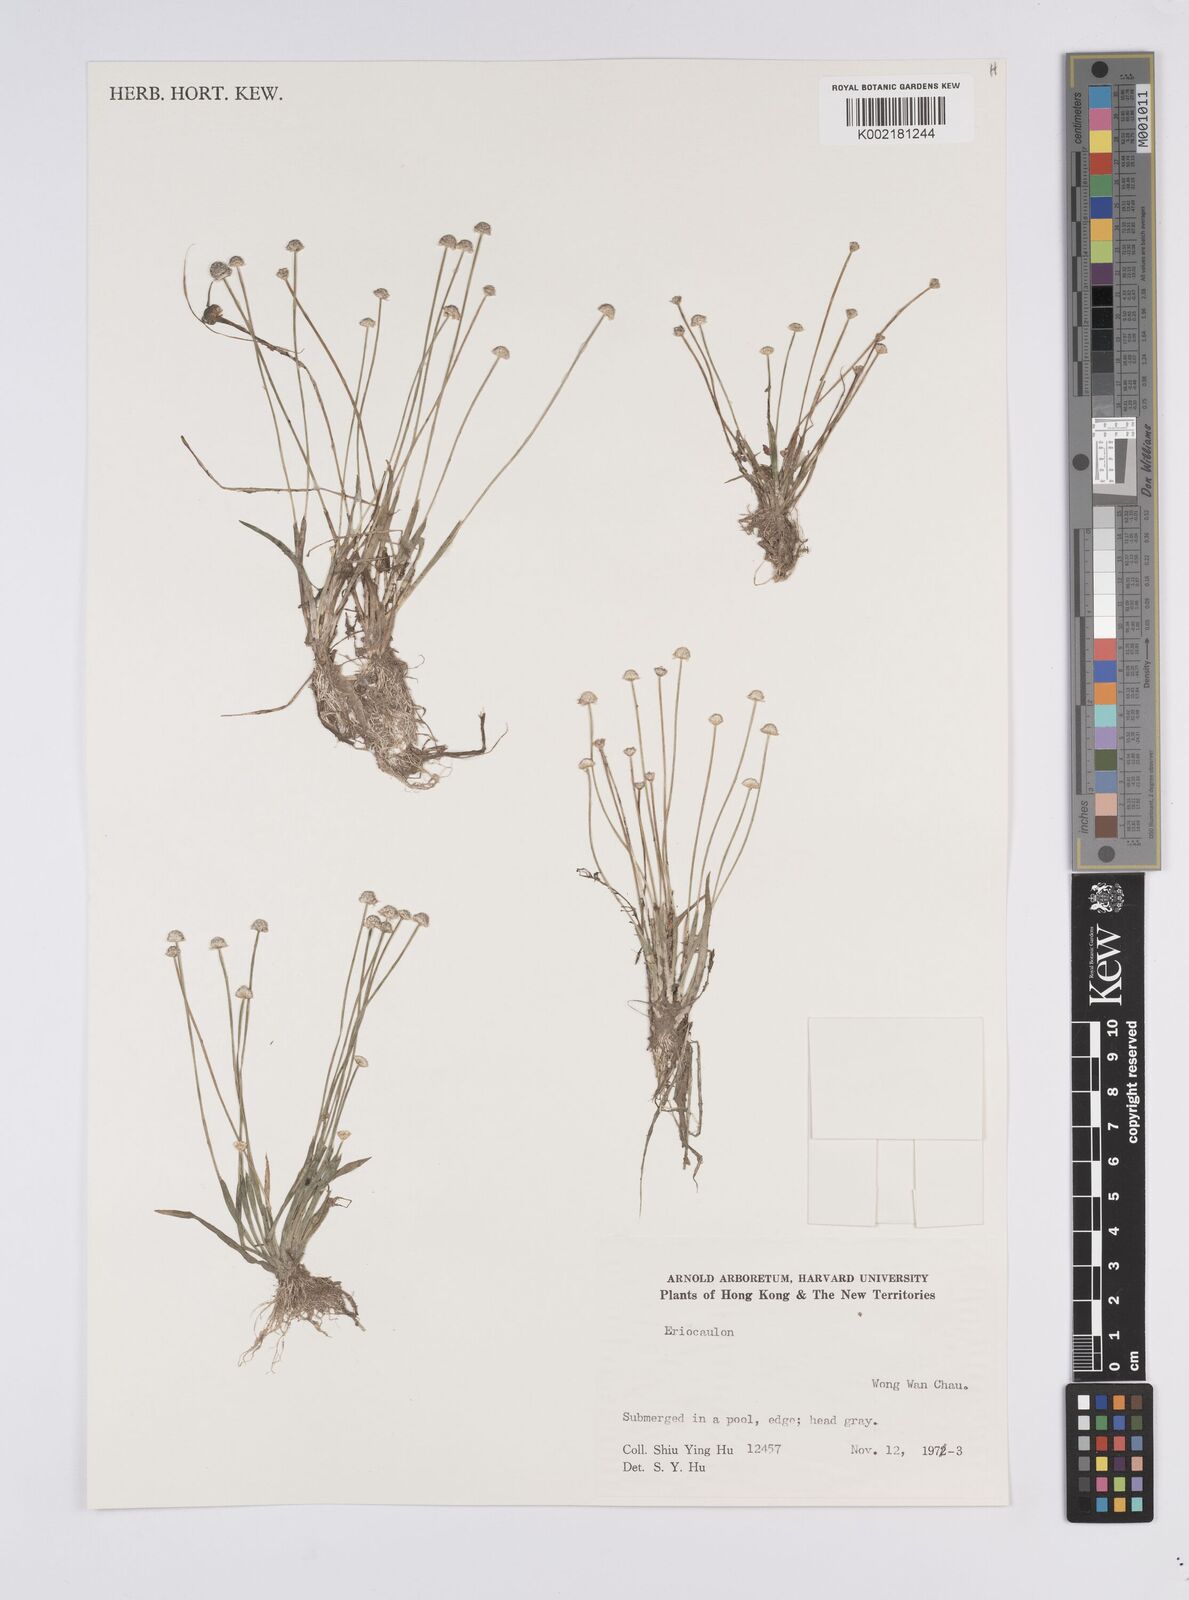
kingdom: Plantae
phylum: Tracheophyta
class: Liliopsida
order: Poales
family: Eriocaulaceae
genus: Eriocaulon
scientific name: Eriocaulon
